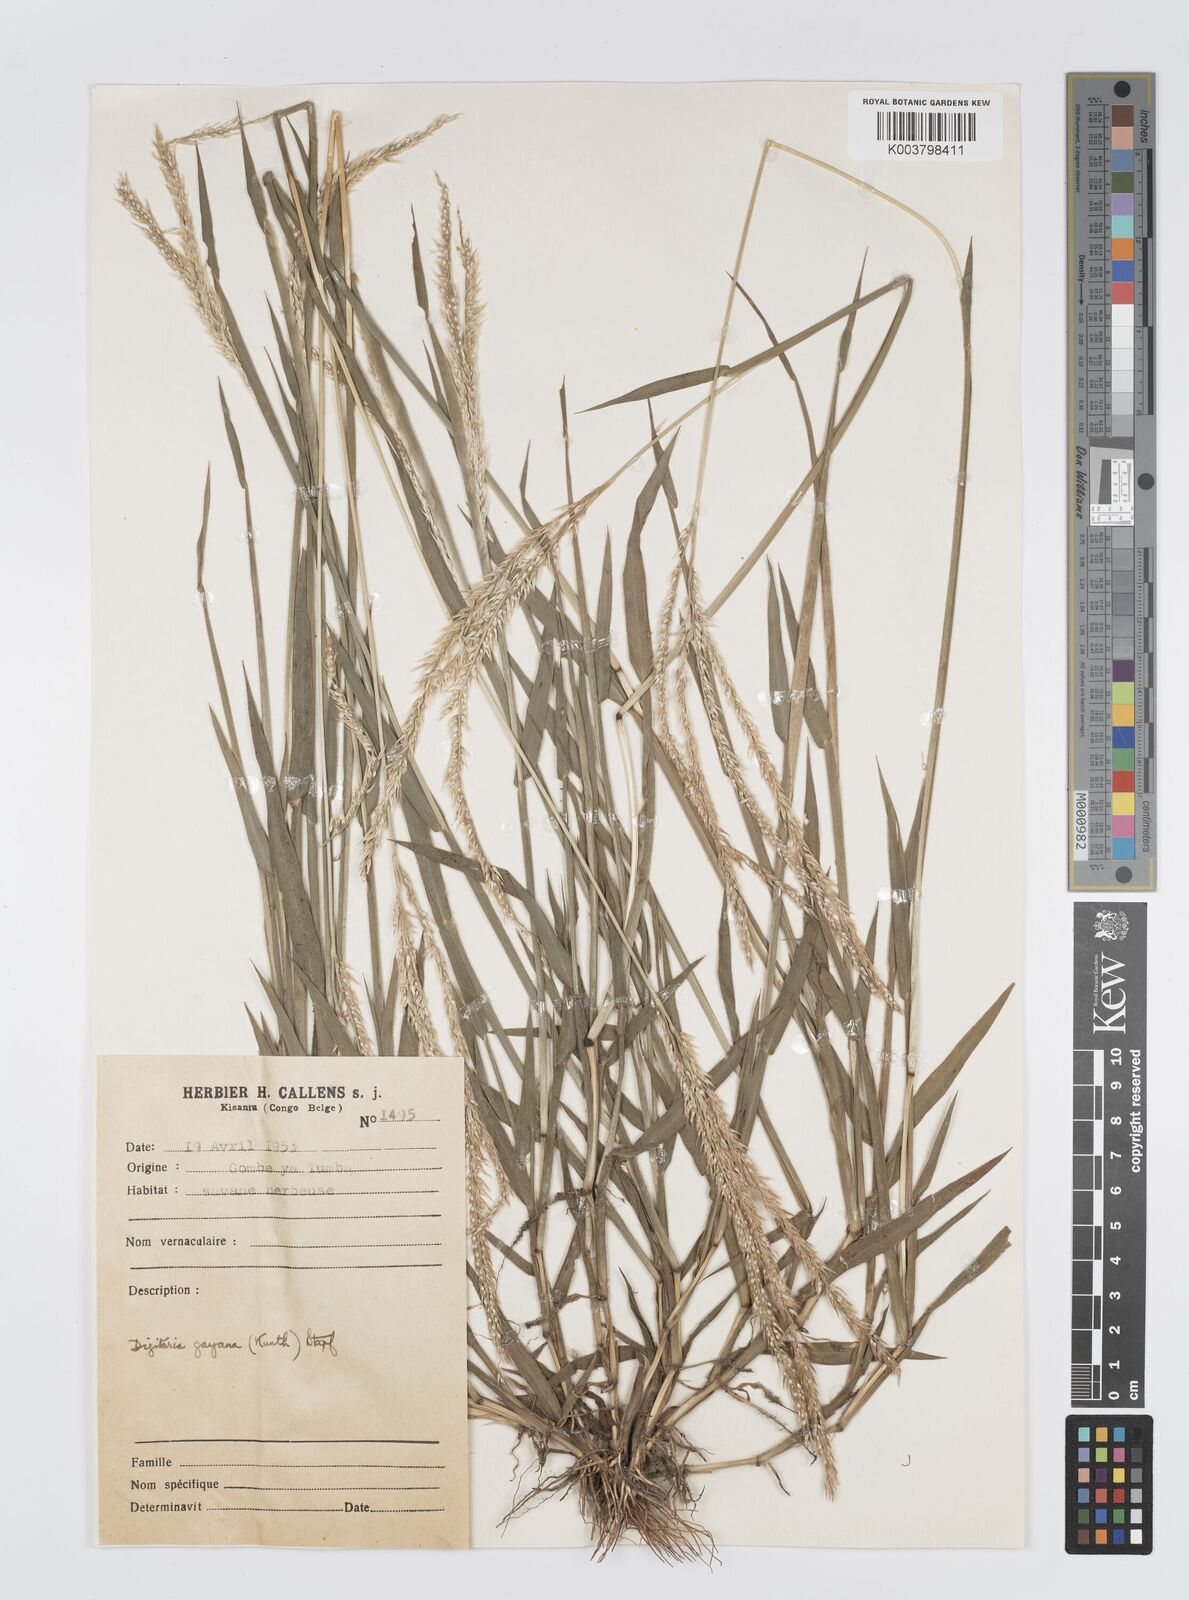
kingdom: Plantae
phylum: Tracheophyta
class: Liliopsida
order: Poales
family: Poaceae
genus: Digitaria
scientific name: Digitaria gayana
